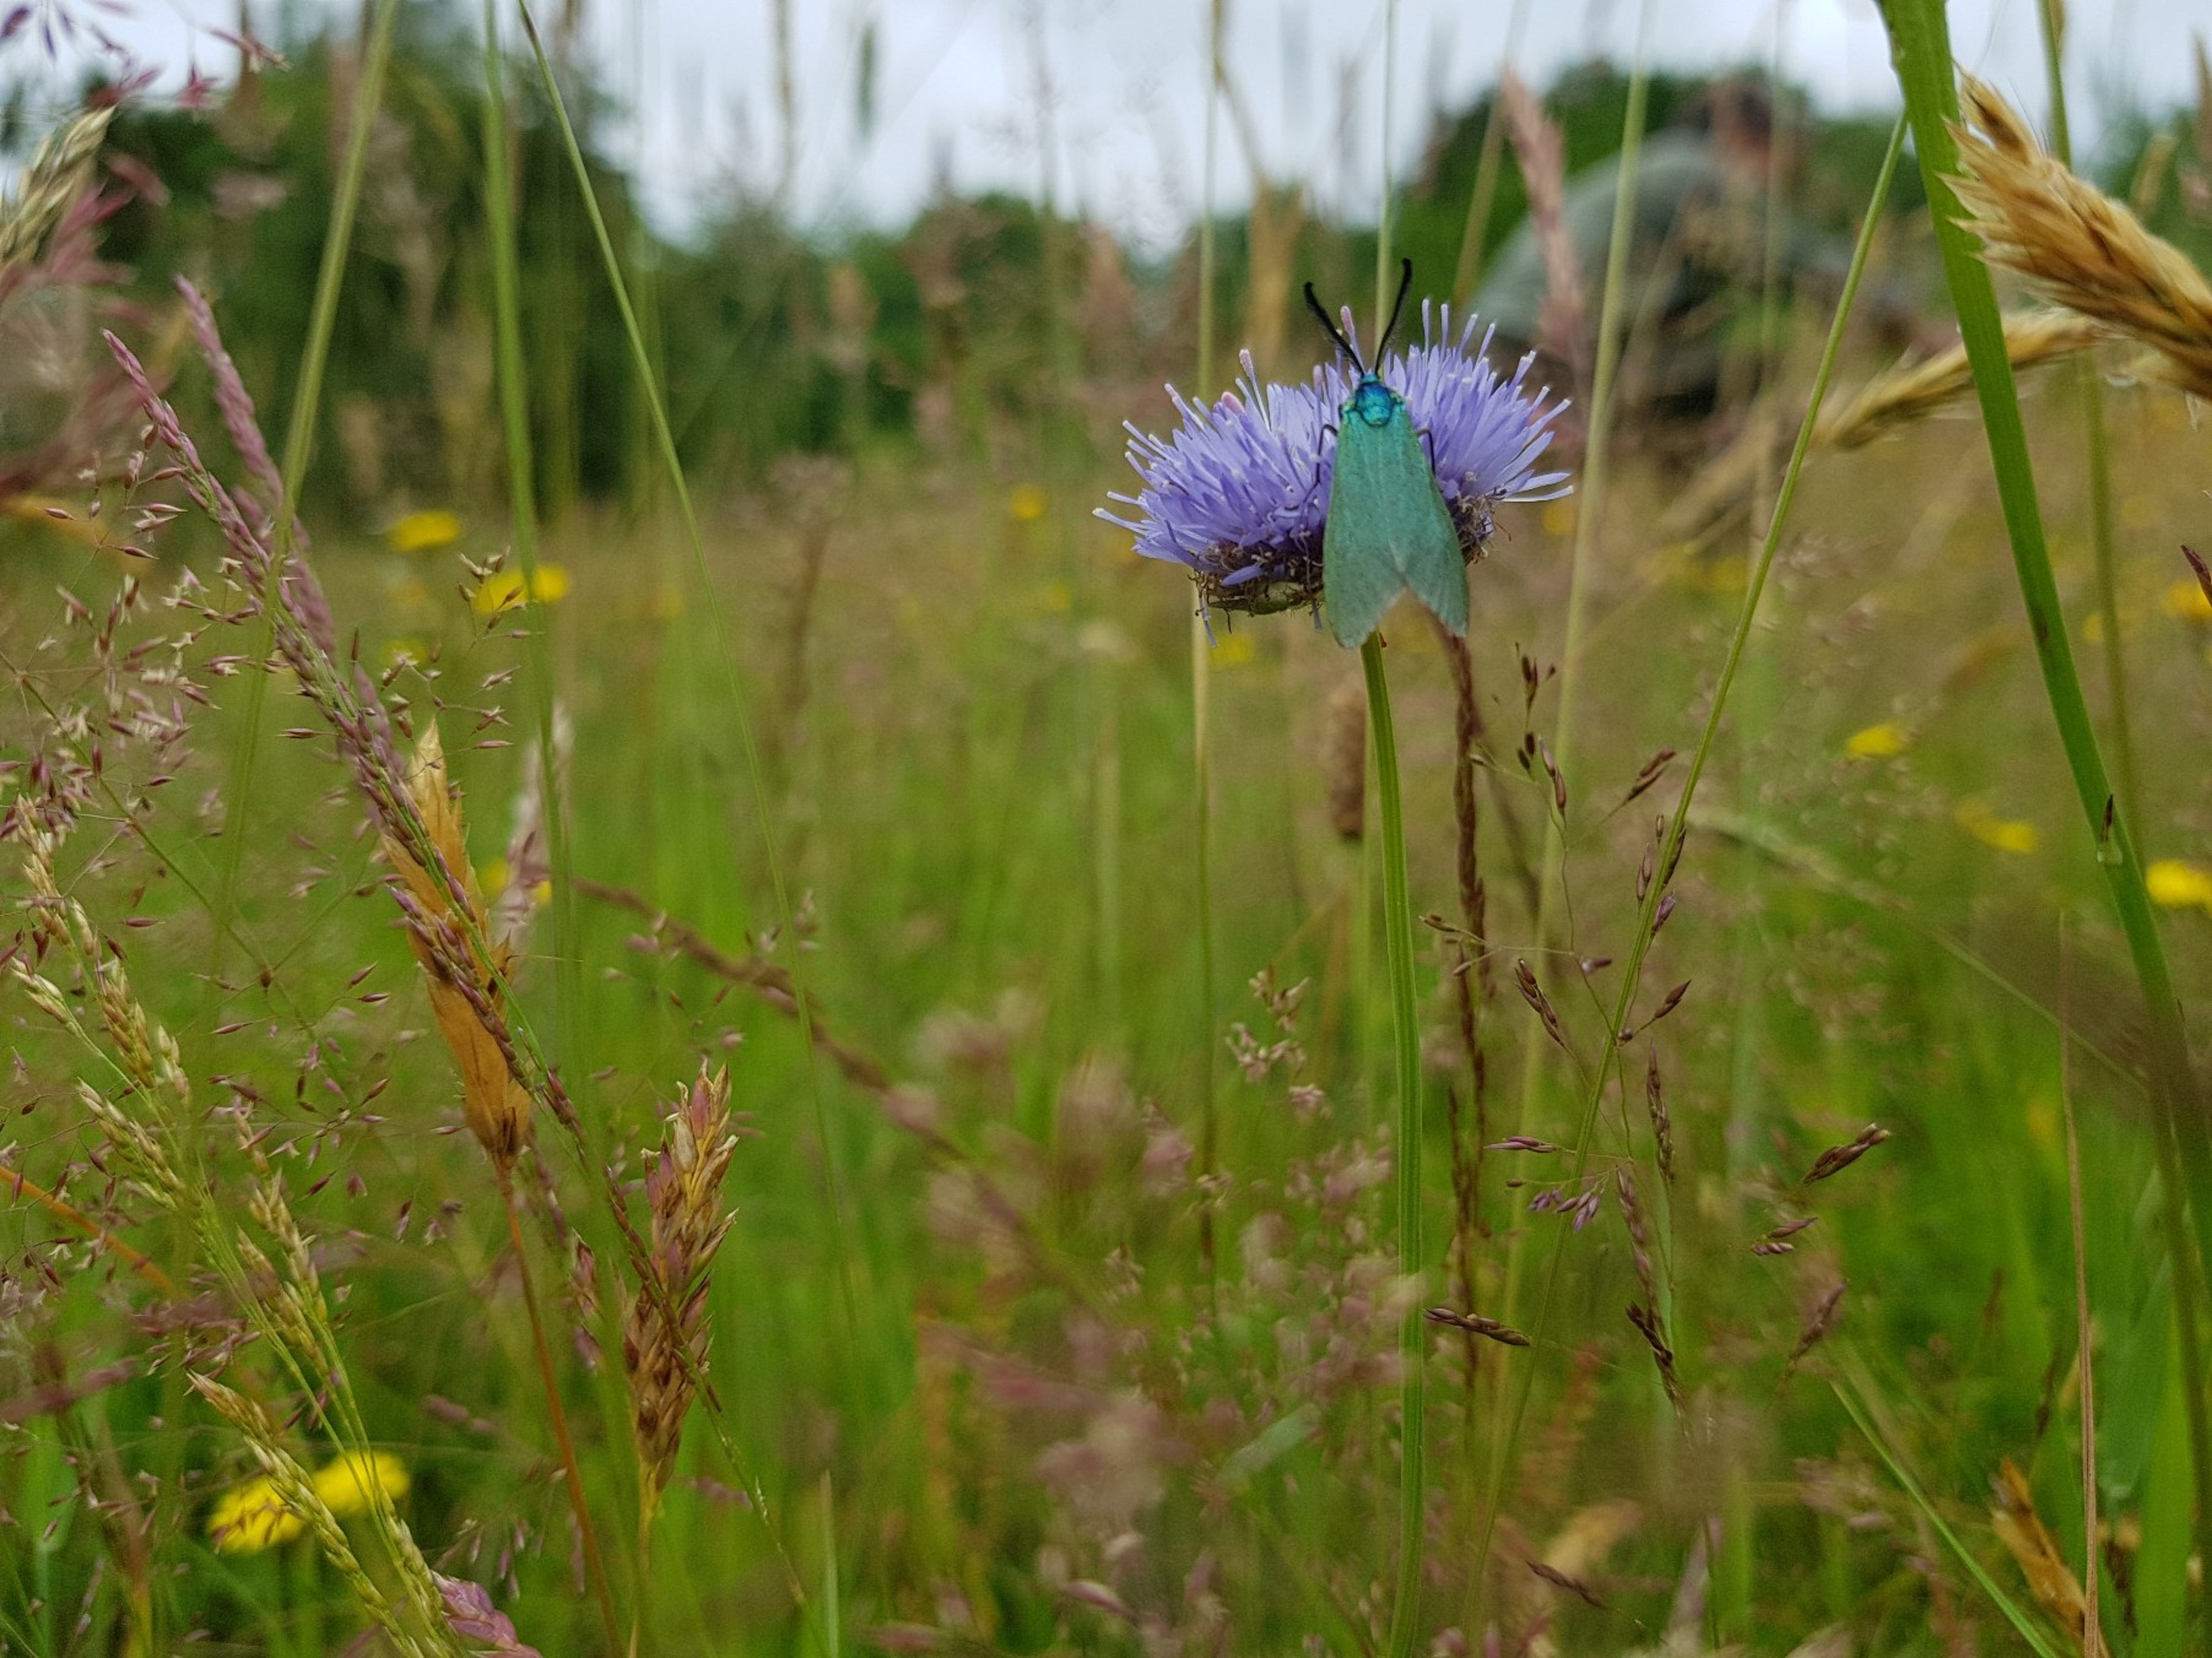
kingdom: Animalia
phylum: Arthropoda
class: Insecta
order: Lepidoptera
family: Zygaenidae
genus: Adscita
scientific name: Adscita statices
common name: Metalvinge
